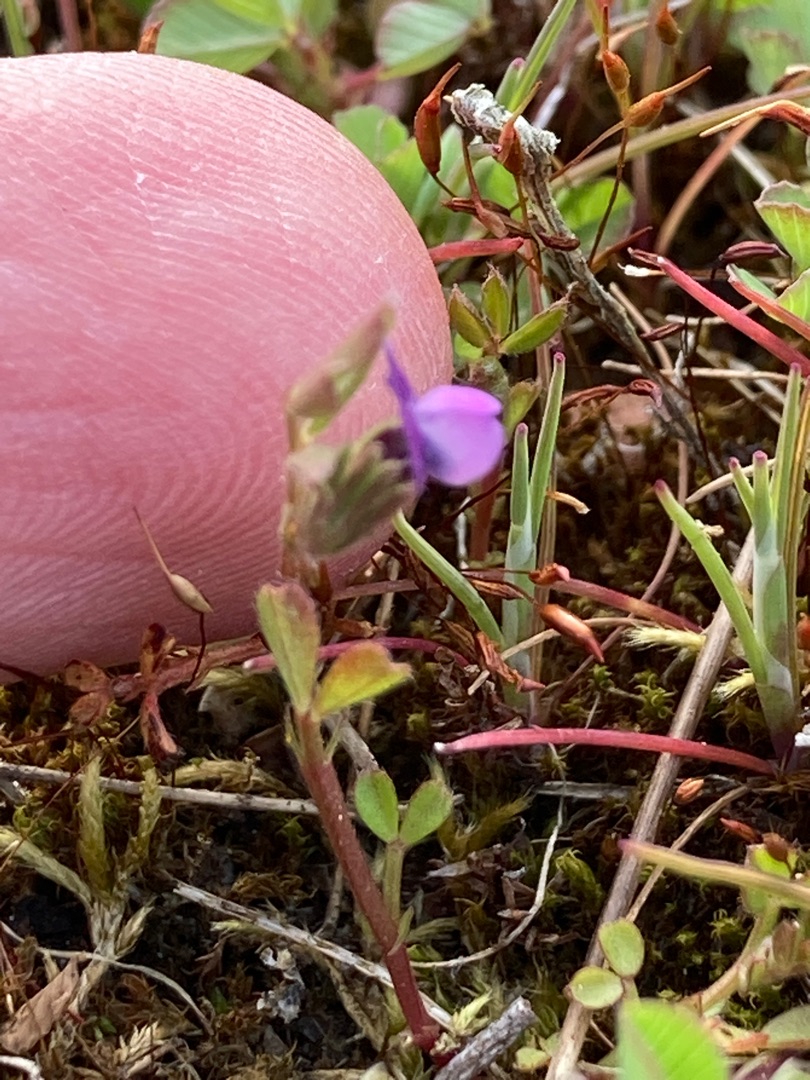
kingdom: Plantae
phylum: Tracheophyta
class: Magnoliopsida
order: Fabales
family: Fabaceae
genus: Vicia
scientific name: Vicia lathyroides
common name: Vår-vikke
